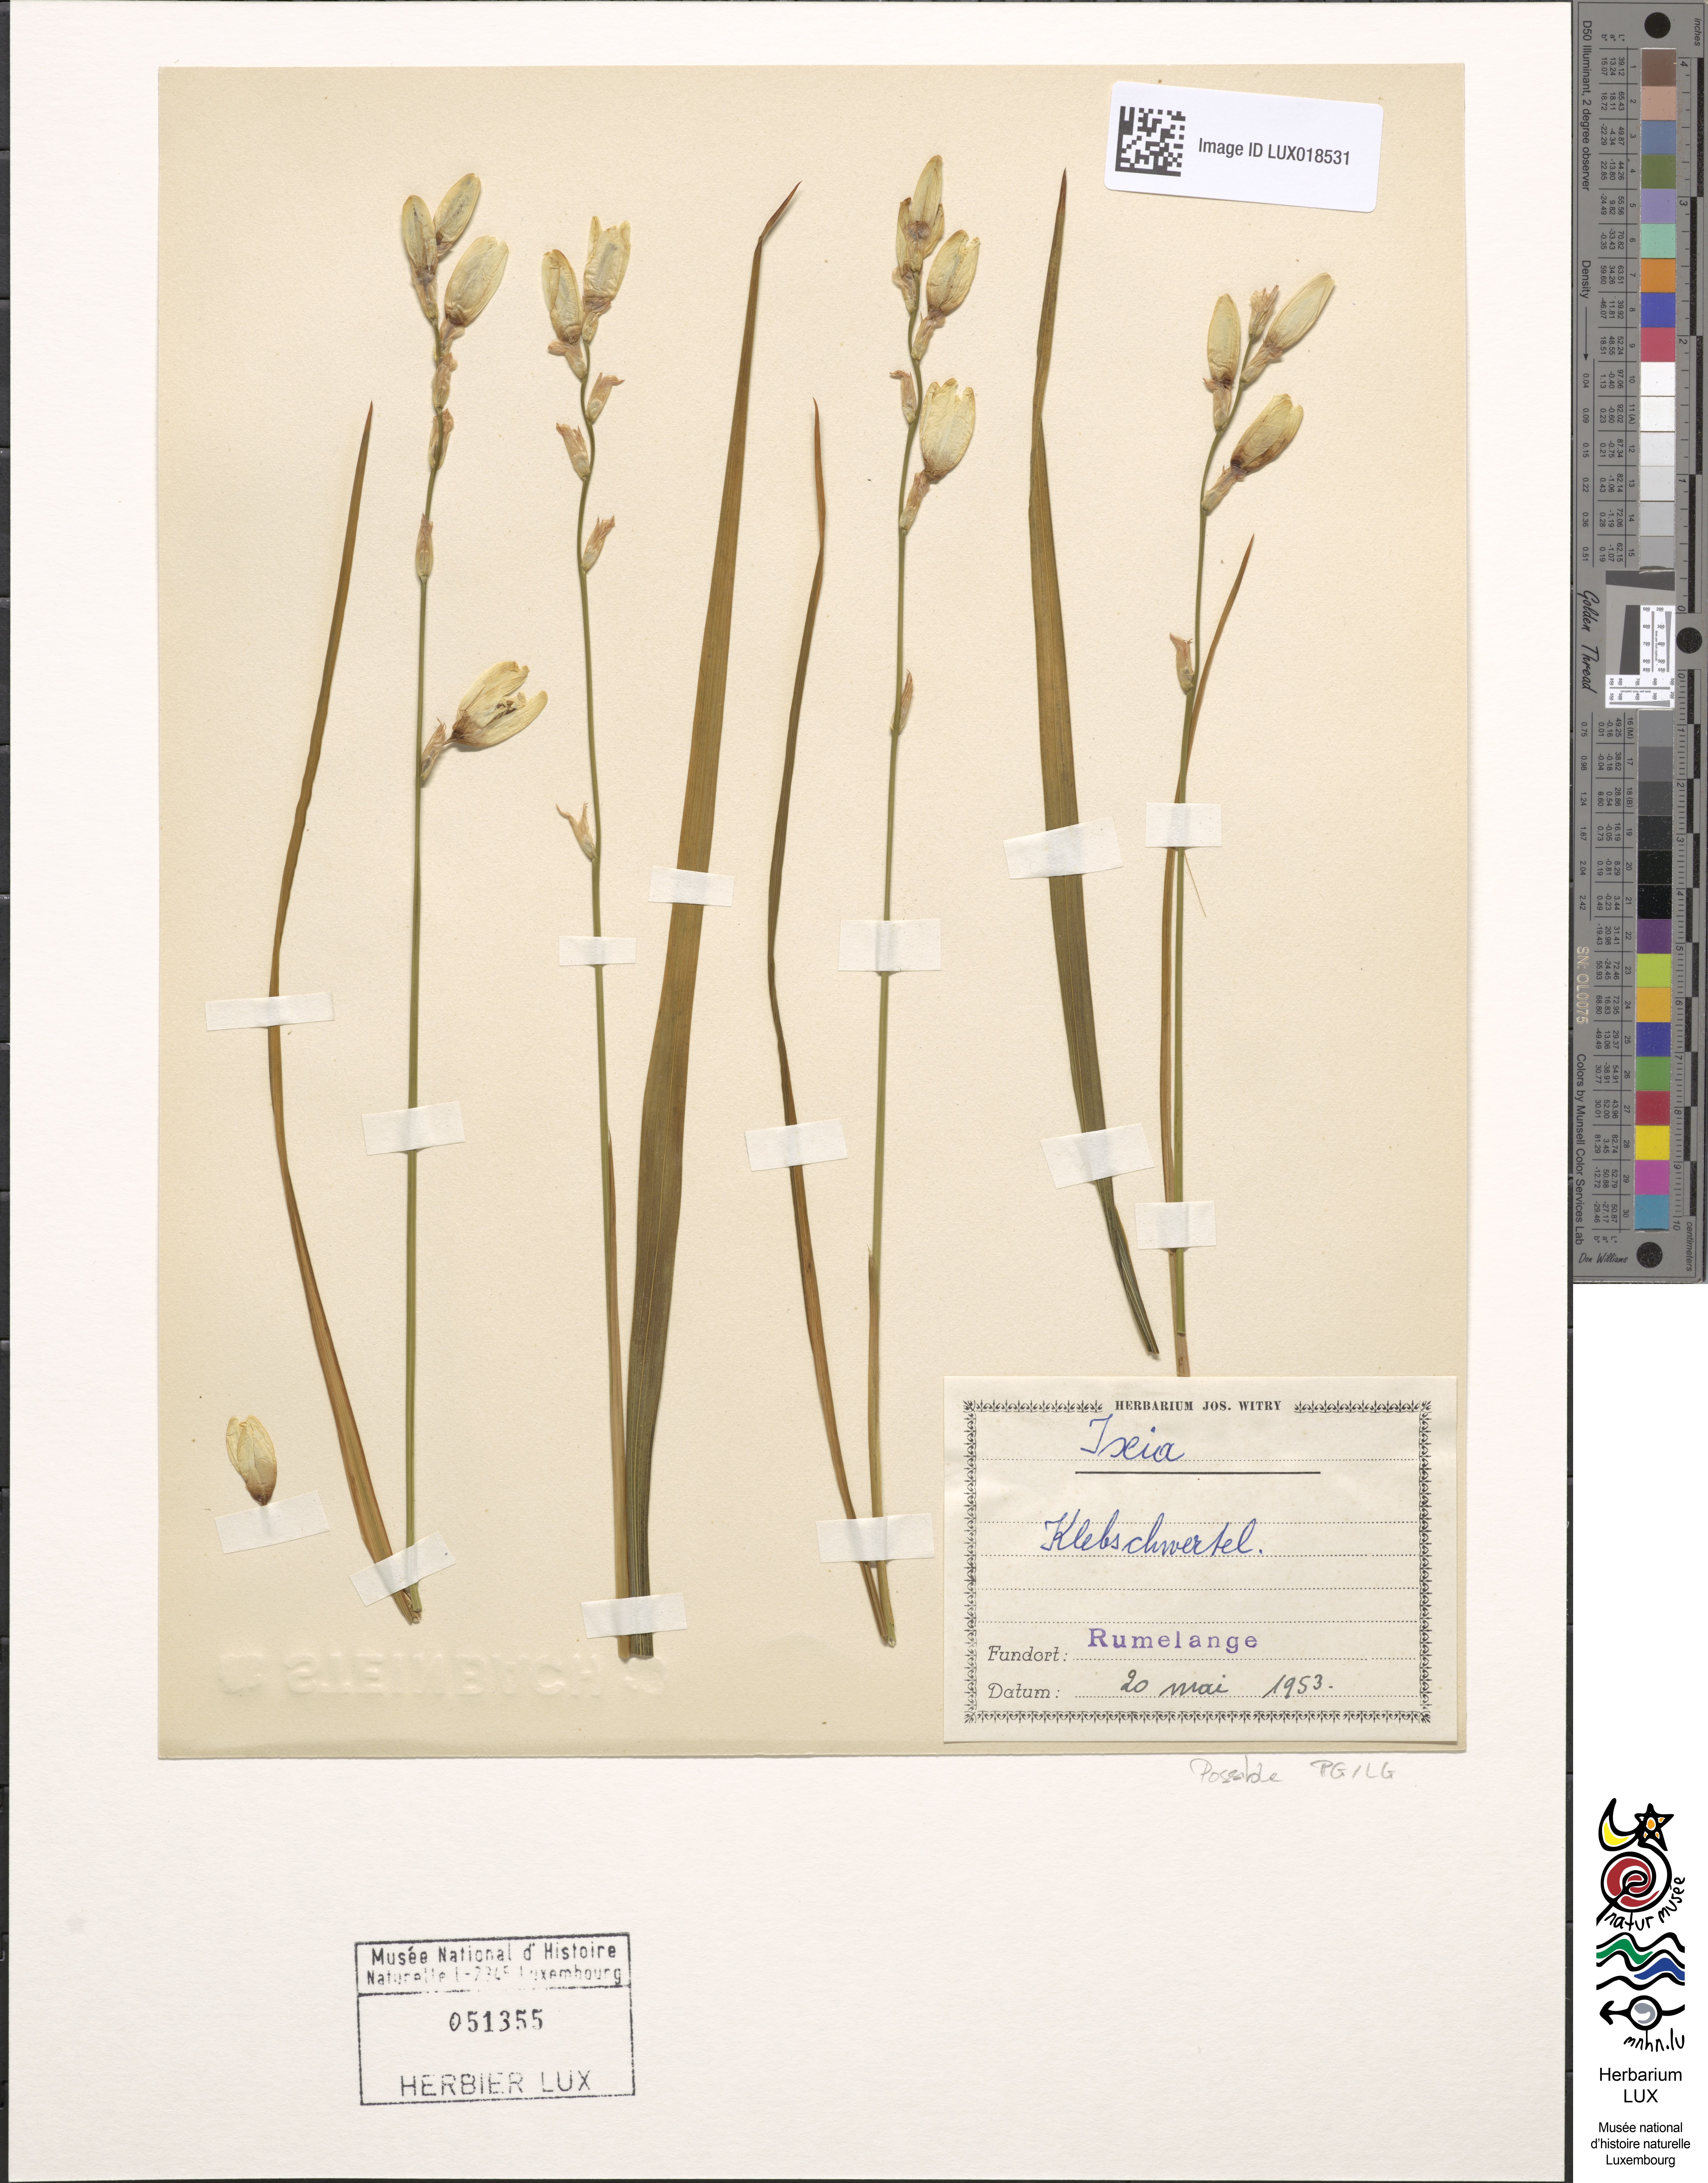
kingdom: Plantae
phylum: Tracheophyta
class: Liliopsida
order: Asparagales
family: Iridaceae
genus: Ixia
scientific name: Ixia
